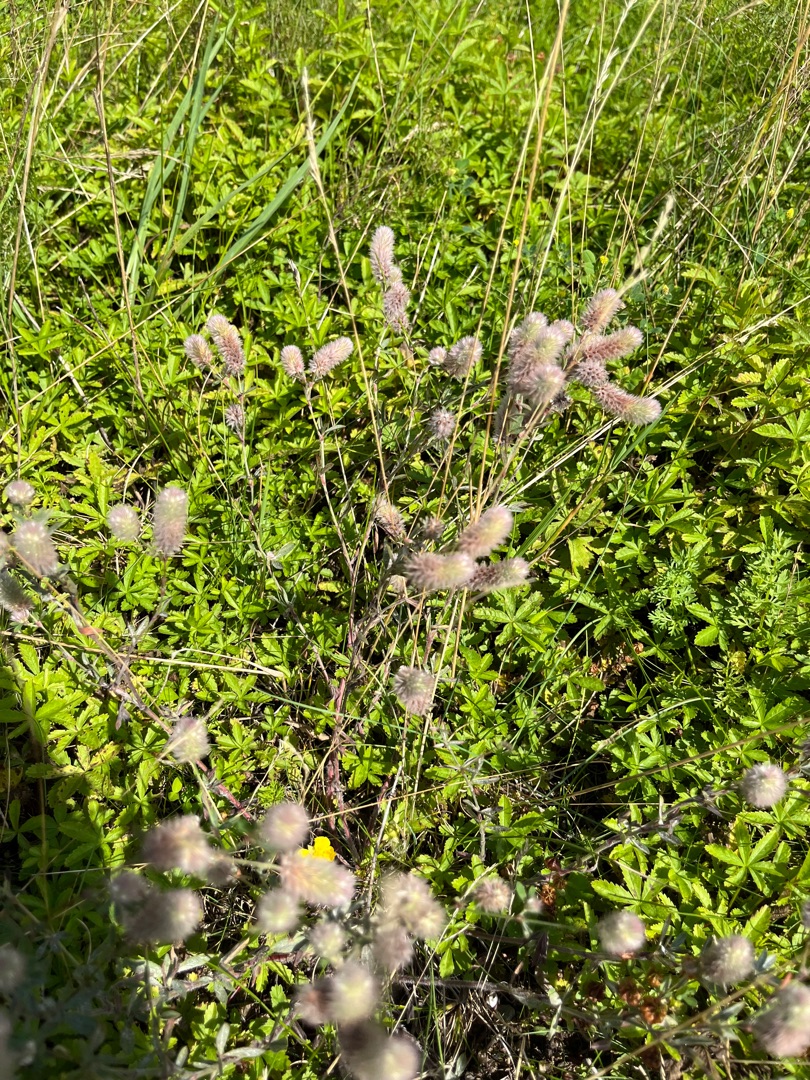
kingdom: Plantae
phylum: Tracheophyta
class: Magnoliopsida
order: Fabales
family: Fabaceae
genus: Trifolium
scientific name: Trifolium arvense
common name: Hare-kløver
